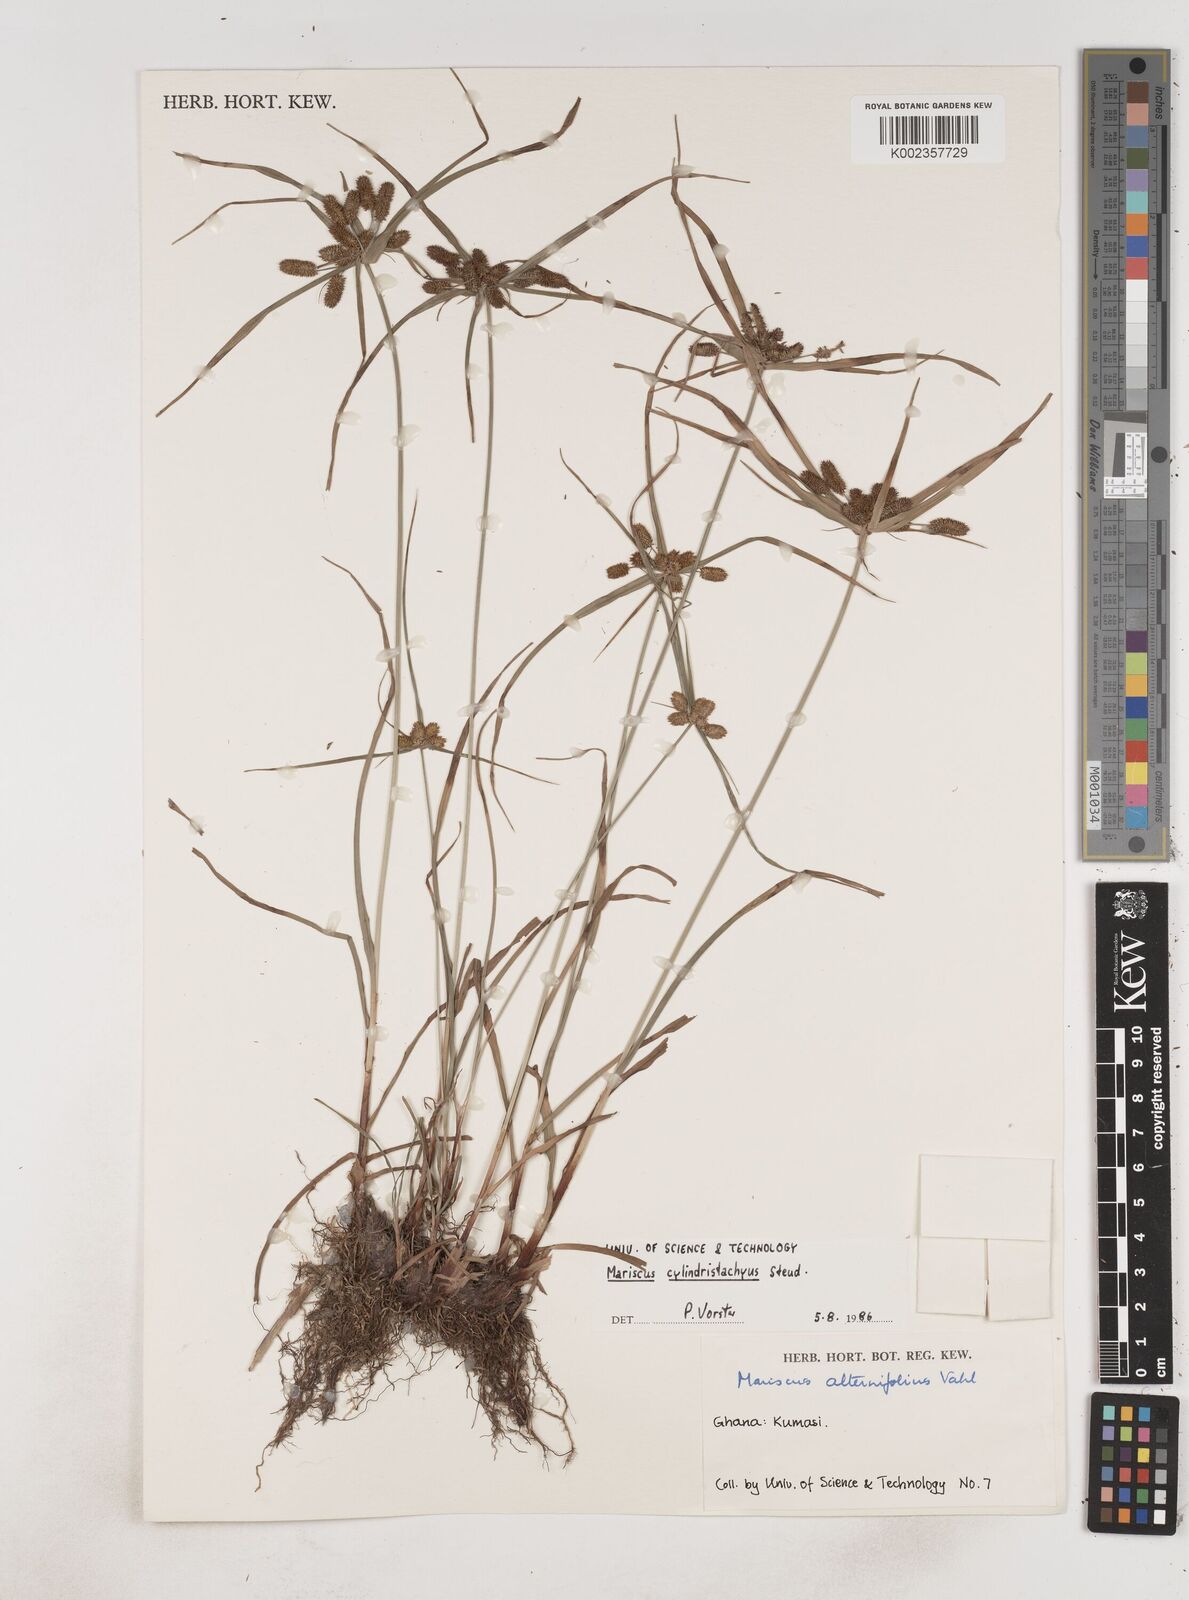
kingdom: Plantae
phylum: Tracheophyta
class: Liliopsida
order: Poales
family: Cyperaceae
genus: Cyperus
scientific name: Cyperus sublimis
